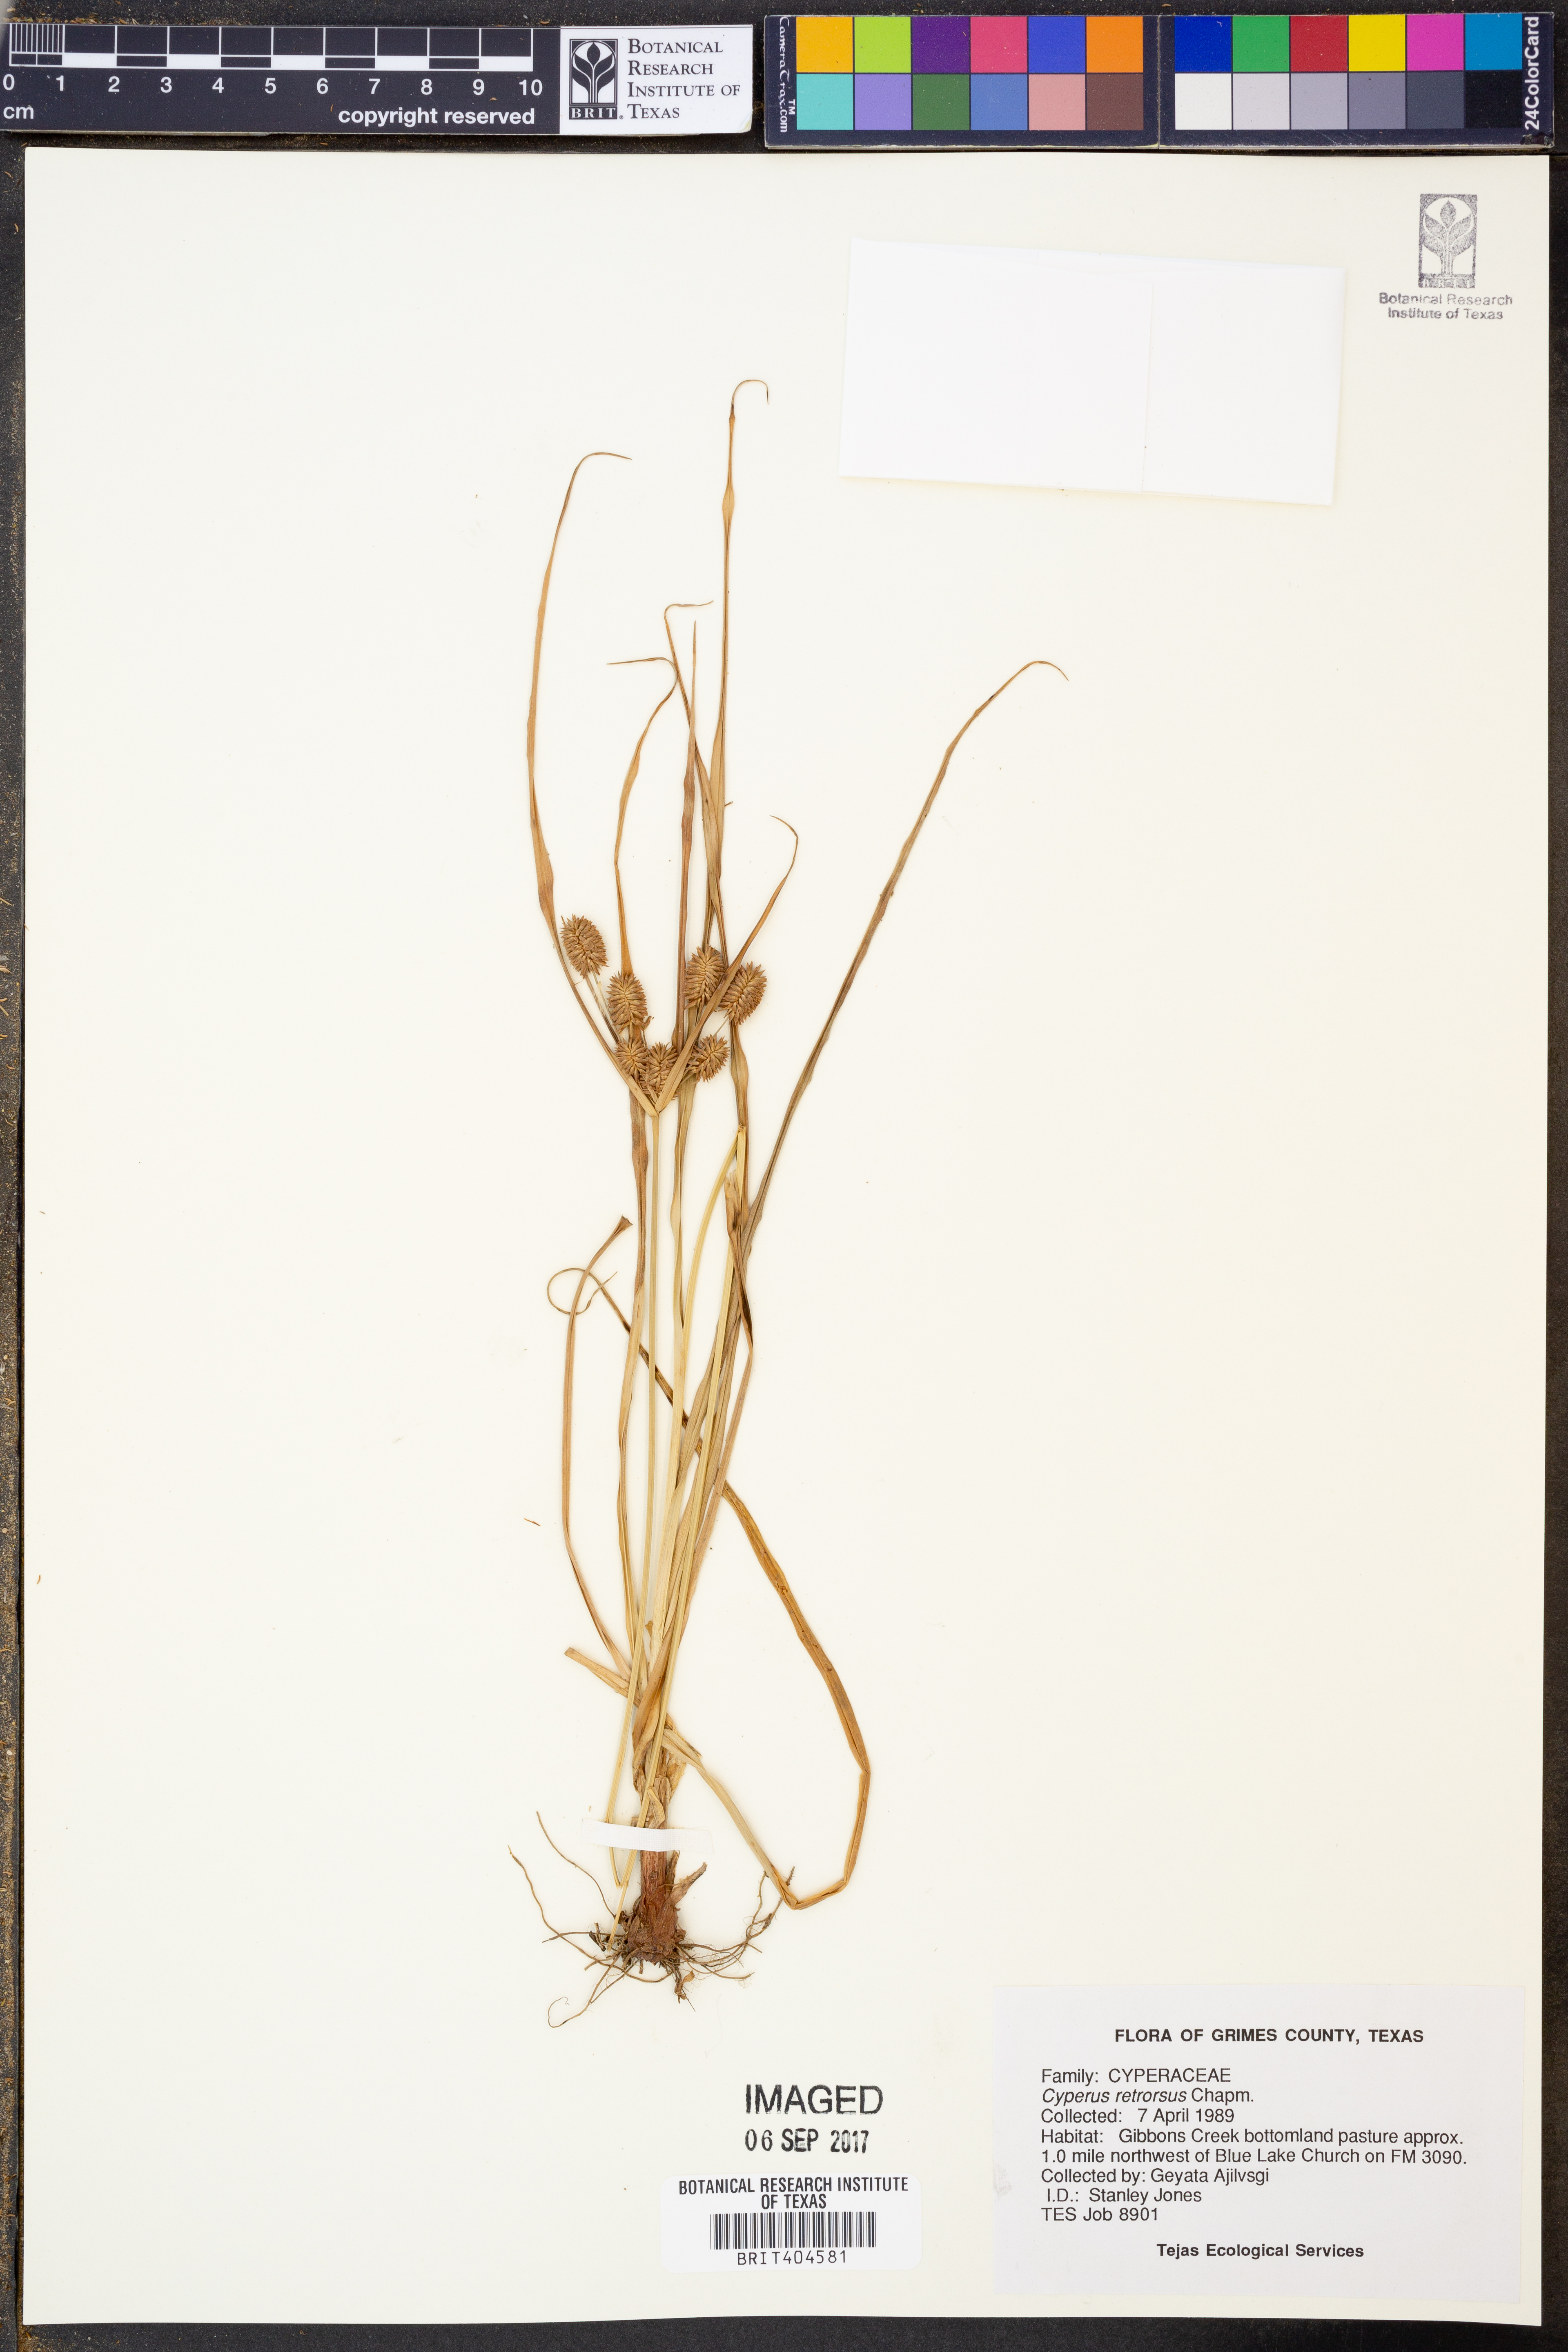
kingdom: Plantae
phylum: Tracheophyta
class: Liliopsida
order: Poales
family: Cyperaceae
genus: Cyperus
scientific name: Cyperus retrorsus
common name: Pinebarren flat sedge
